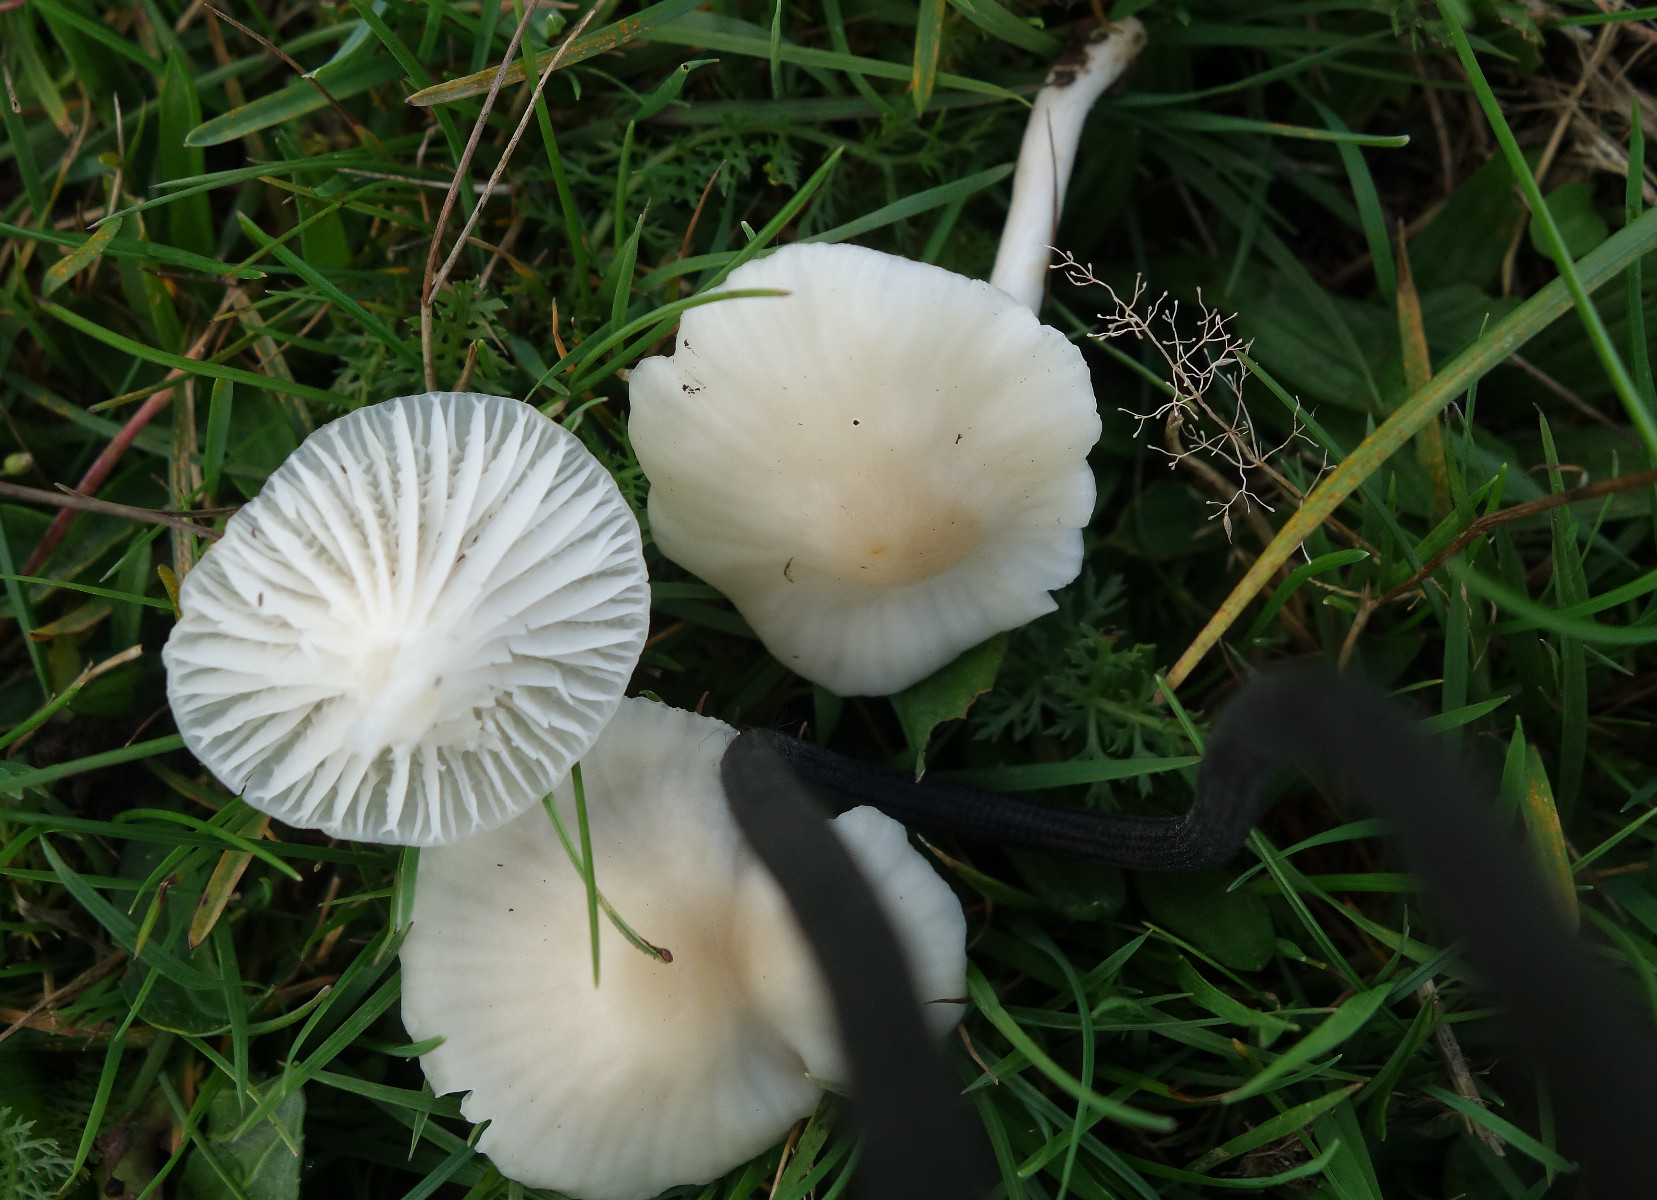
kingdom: Fungi
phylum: Basidiomycota
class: Agaricomycetes
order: Agaricales
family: Hygrophoraceae
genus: Cuphophyllus
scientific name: Cuphophyllus russocoriaceus
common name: ruslæder-vokshat
